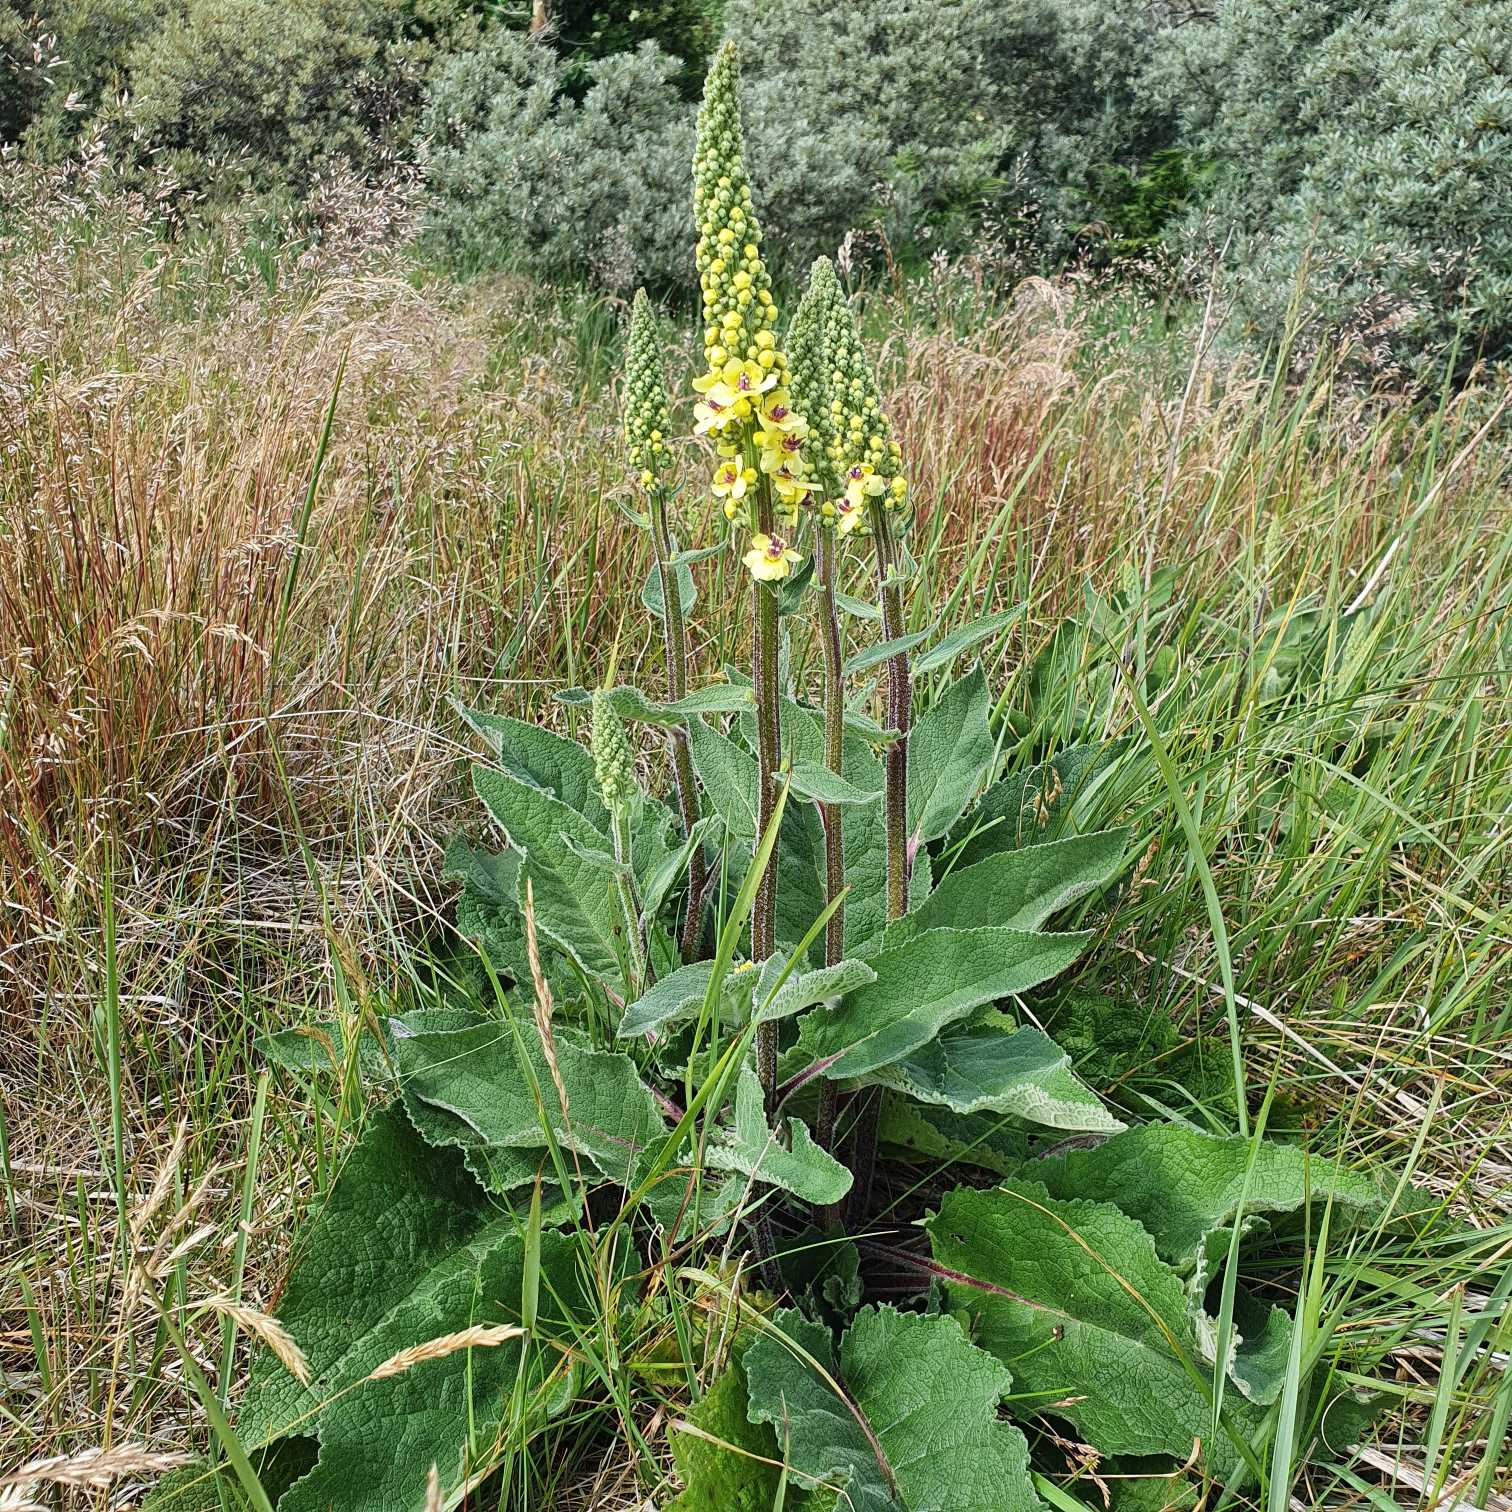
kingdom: Plantae
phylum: Tracheophyta
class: Magnoliopsida
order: Lamiales
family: Scrophulariaceae
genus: Verbascum
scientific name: Verbascum nigrum
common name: Mørk kongelys
